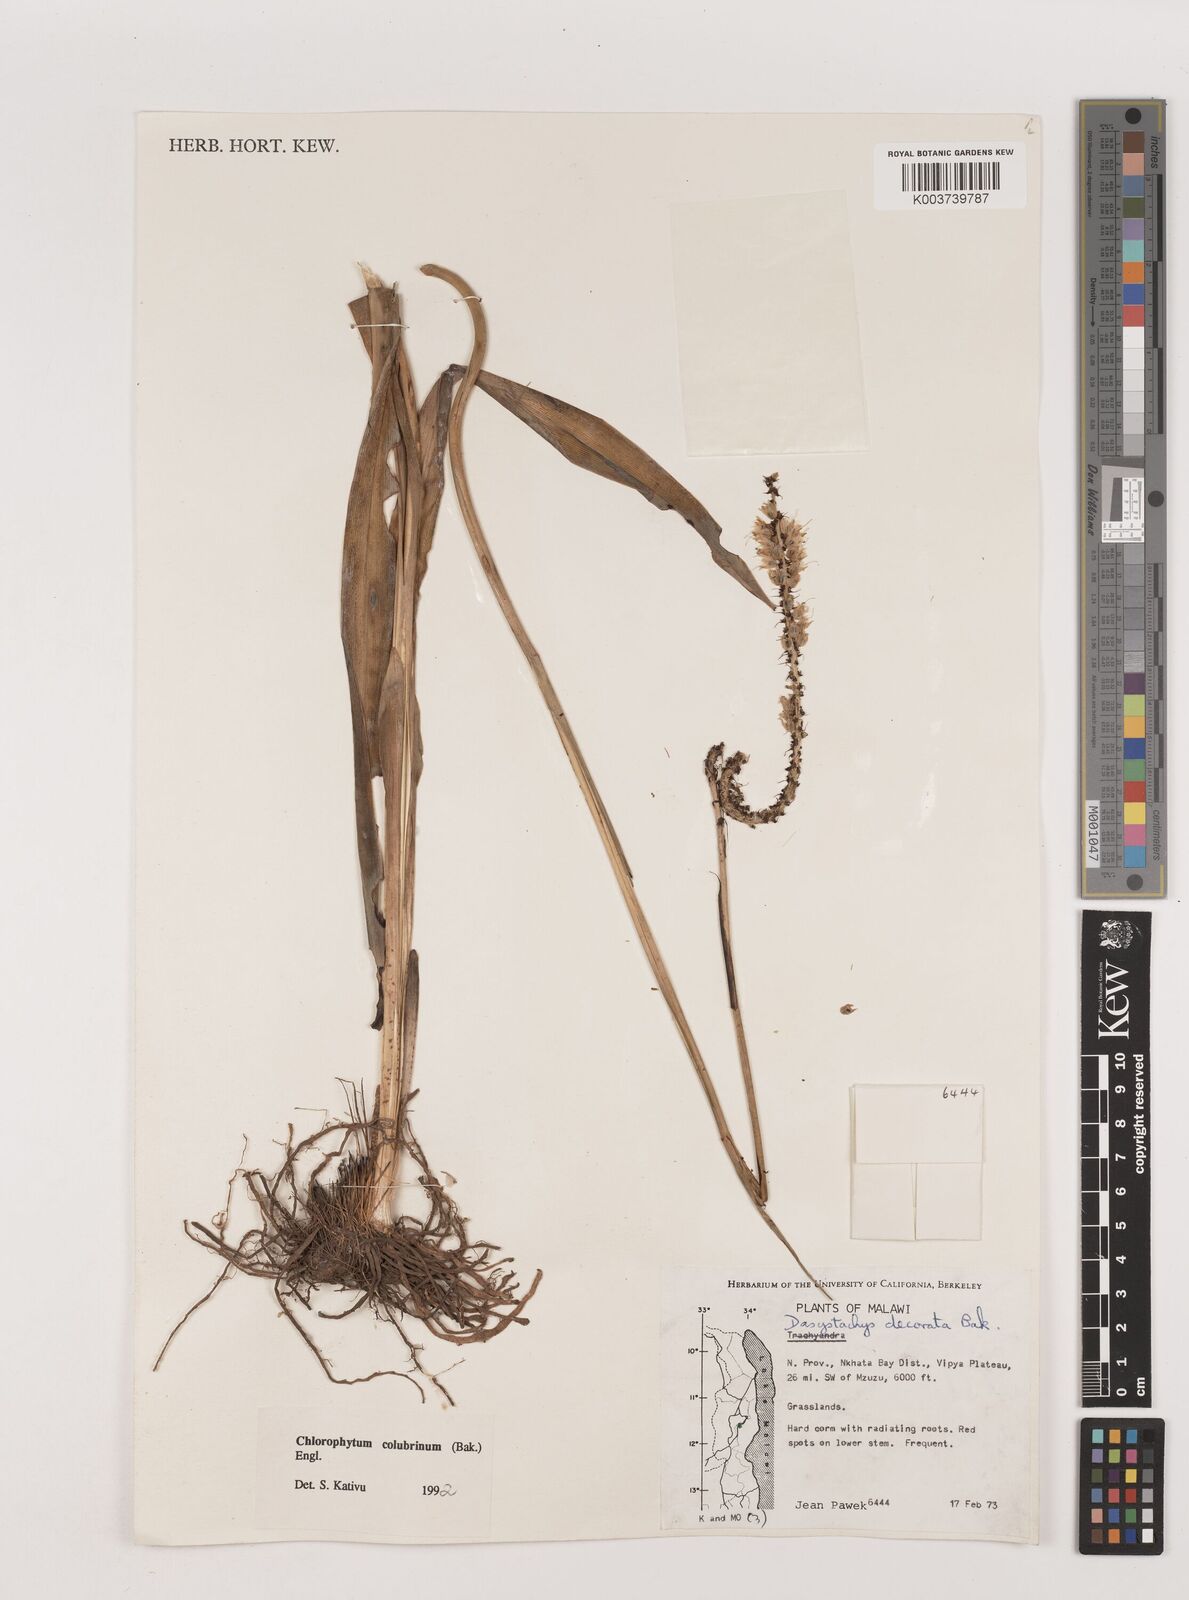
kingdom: Plantae
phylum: Tracheophyta
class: Liliopsida
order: Asparagales
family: Asparagaceae
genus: Chlorophytum
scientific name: Chlorophytum colubrinum
